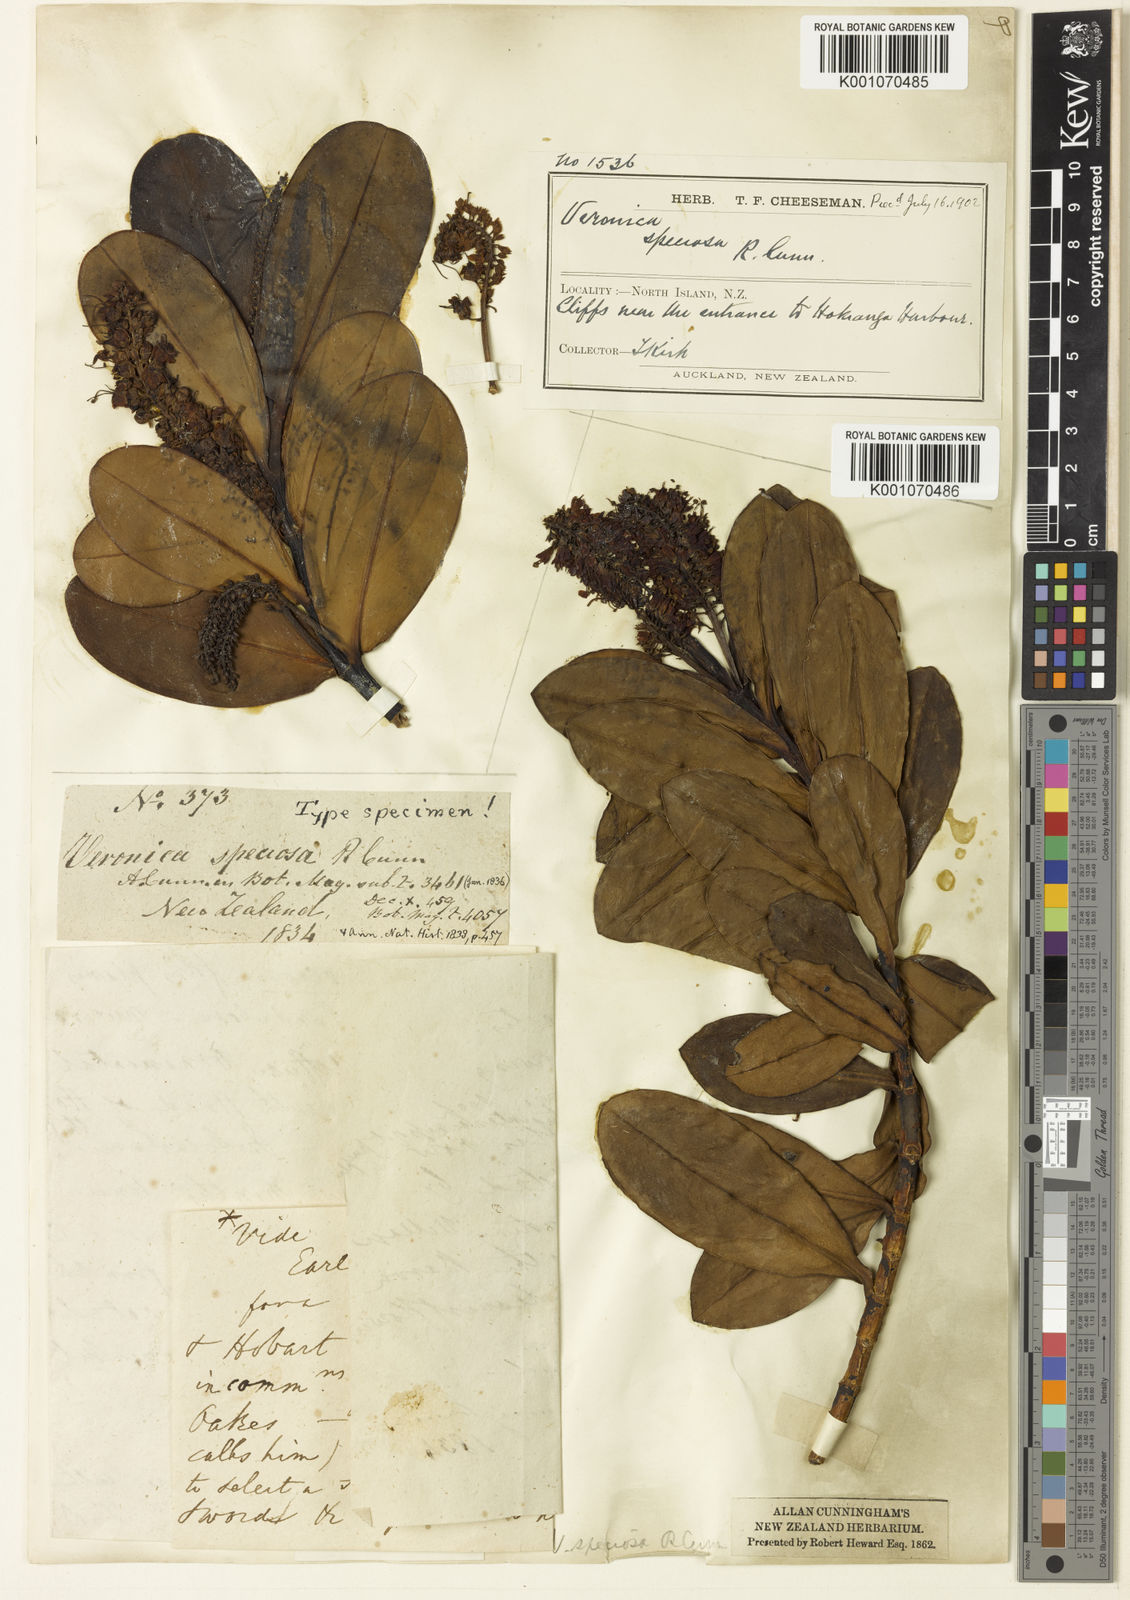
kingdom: Plantae
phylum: Tracheophyta
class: Magnoliopsida
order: Lamiales
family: Plantaginaceae
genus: Veronica
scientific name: Veronica speciosa
